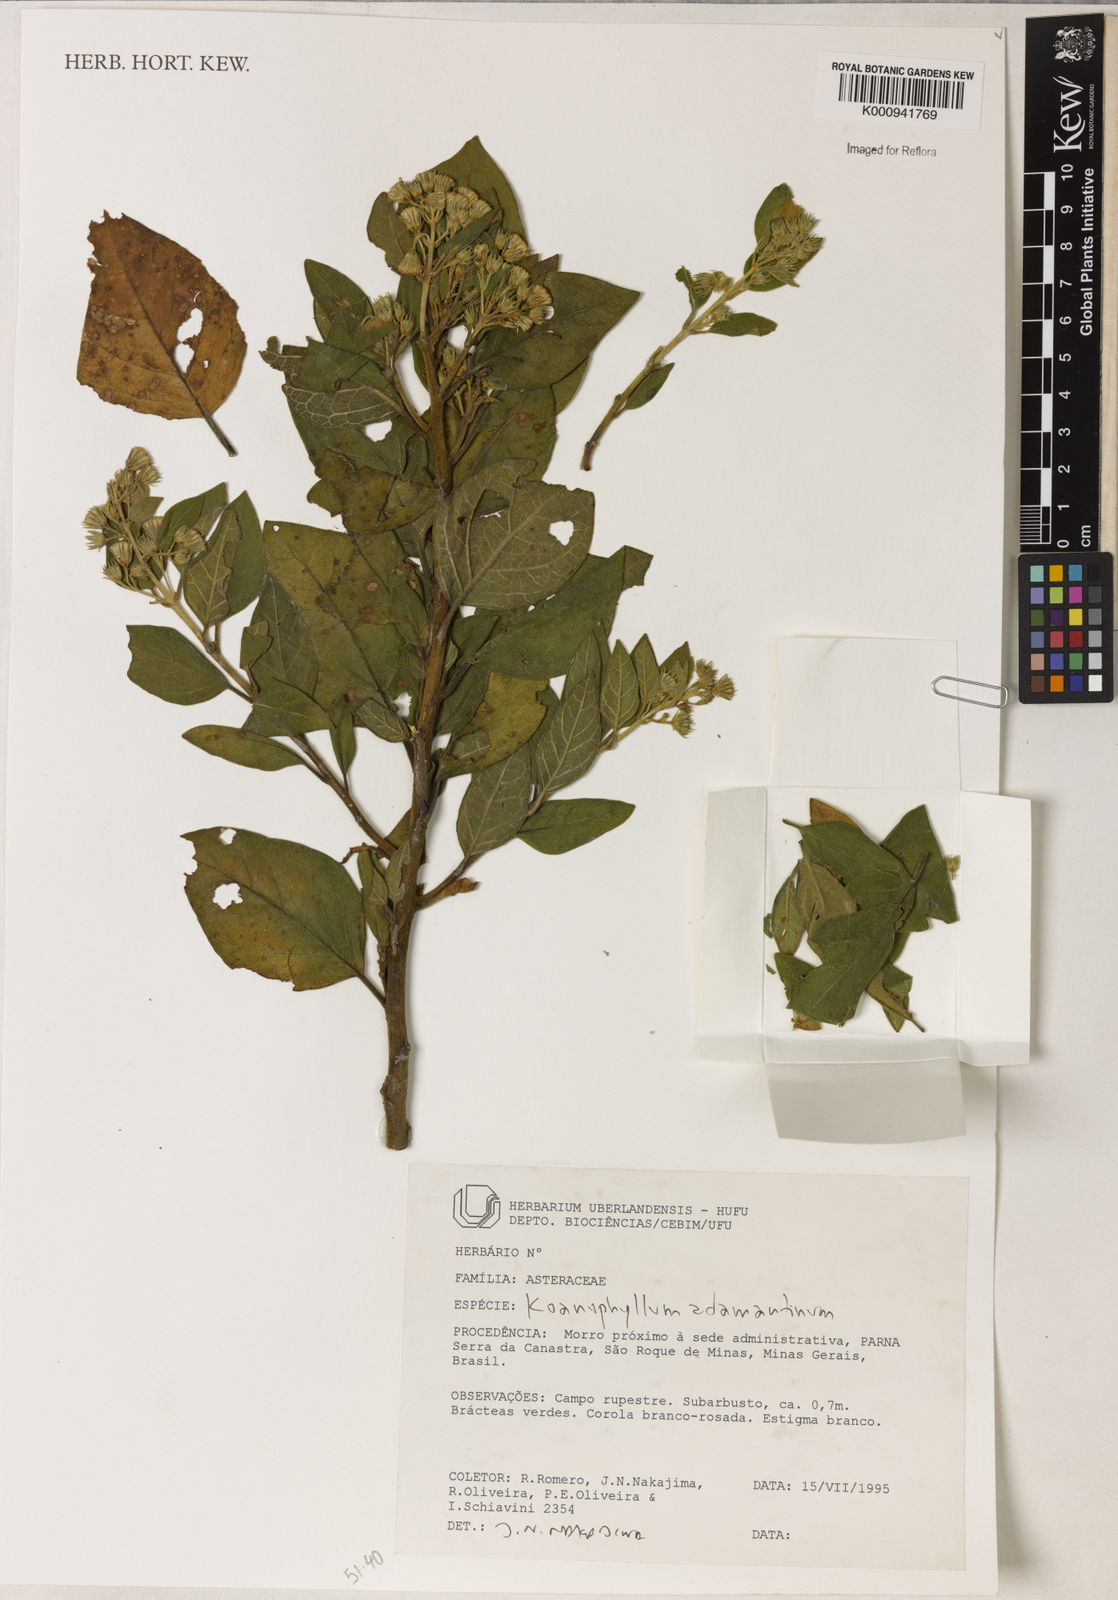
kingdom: Plantae
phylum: Tracheophyta
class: Magnoliopsida
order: Asterales
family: Asteraceae
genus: Koanophyllon
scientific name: Koanophyllon adamantium
